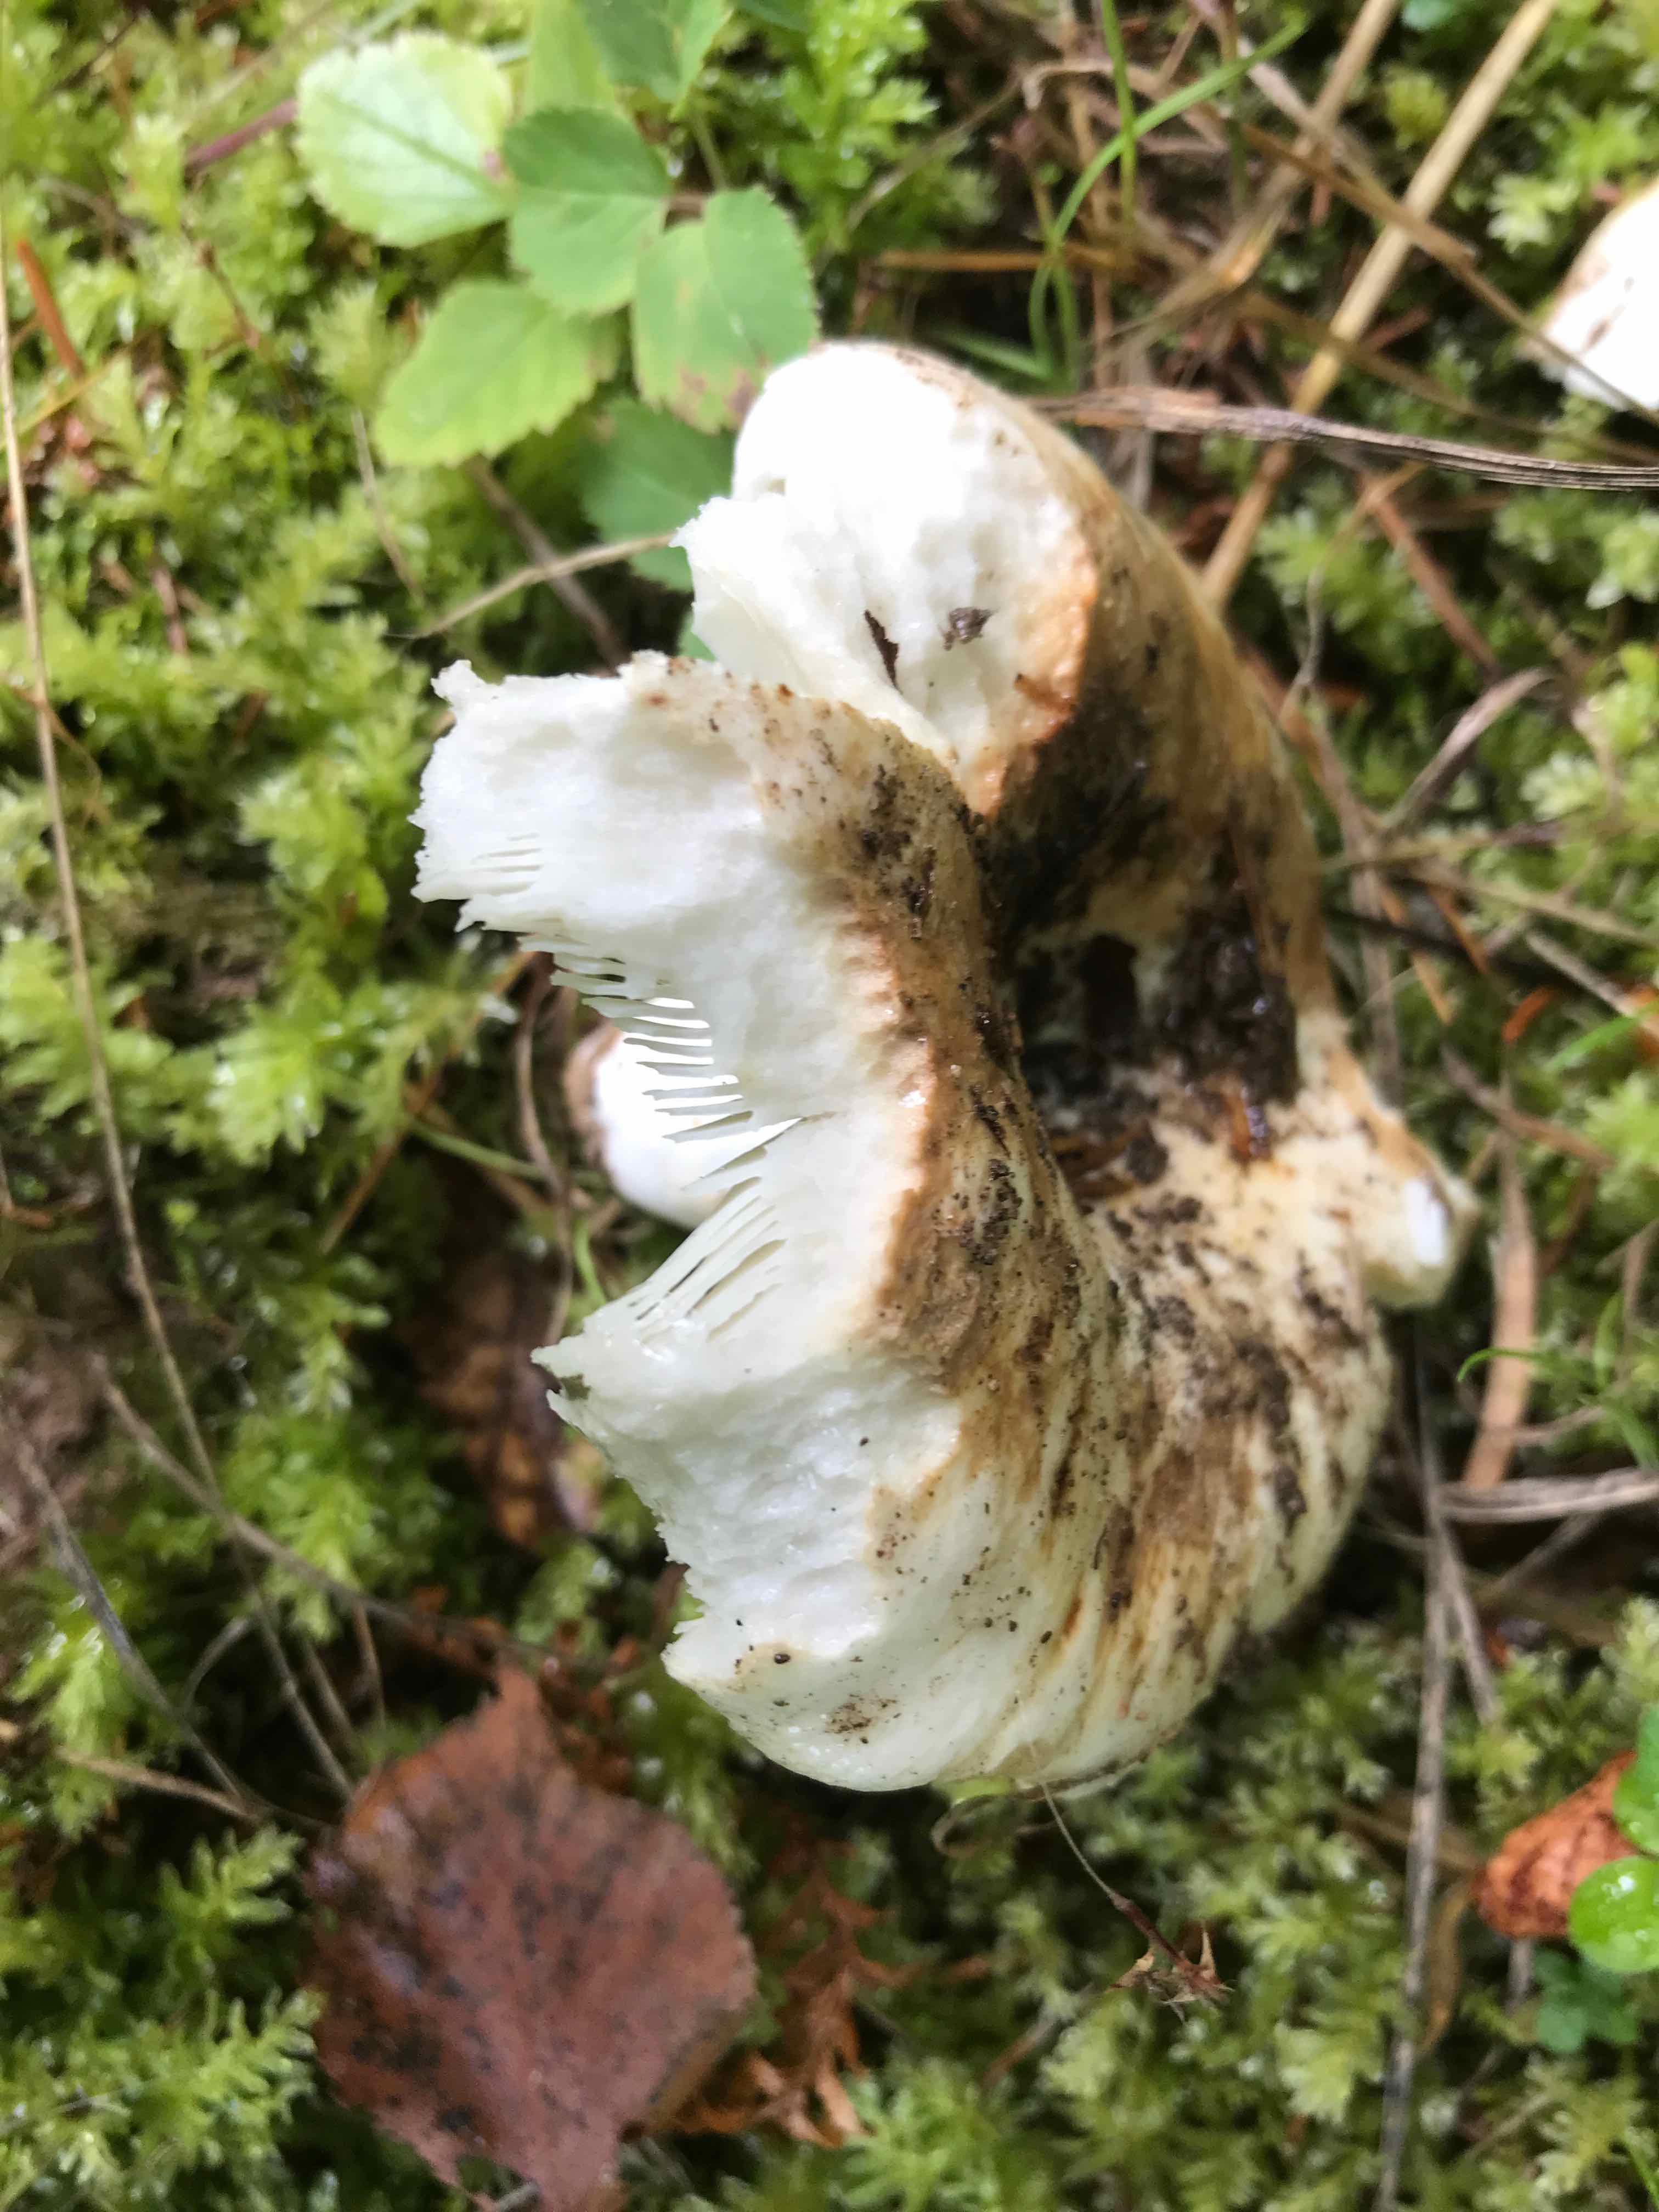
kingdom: Fungi
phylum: Basidiomycota
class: Agaricomycetes
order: Russulales
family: Russulaceae
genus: Russula
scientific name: Russula chloroides
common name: grønhalset tragt-skørhat
